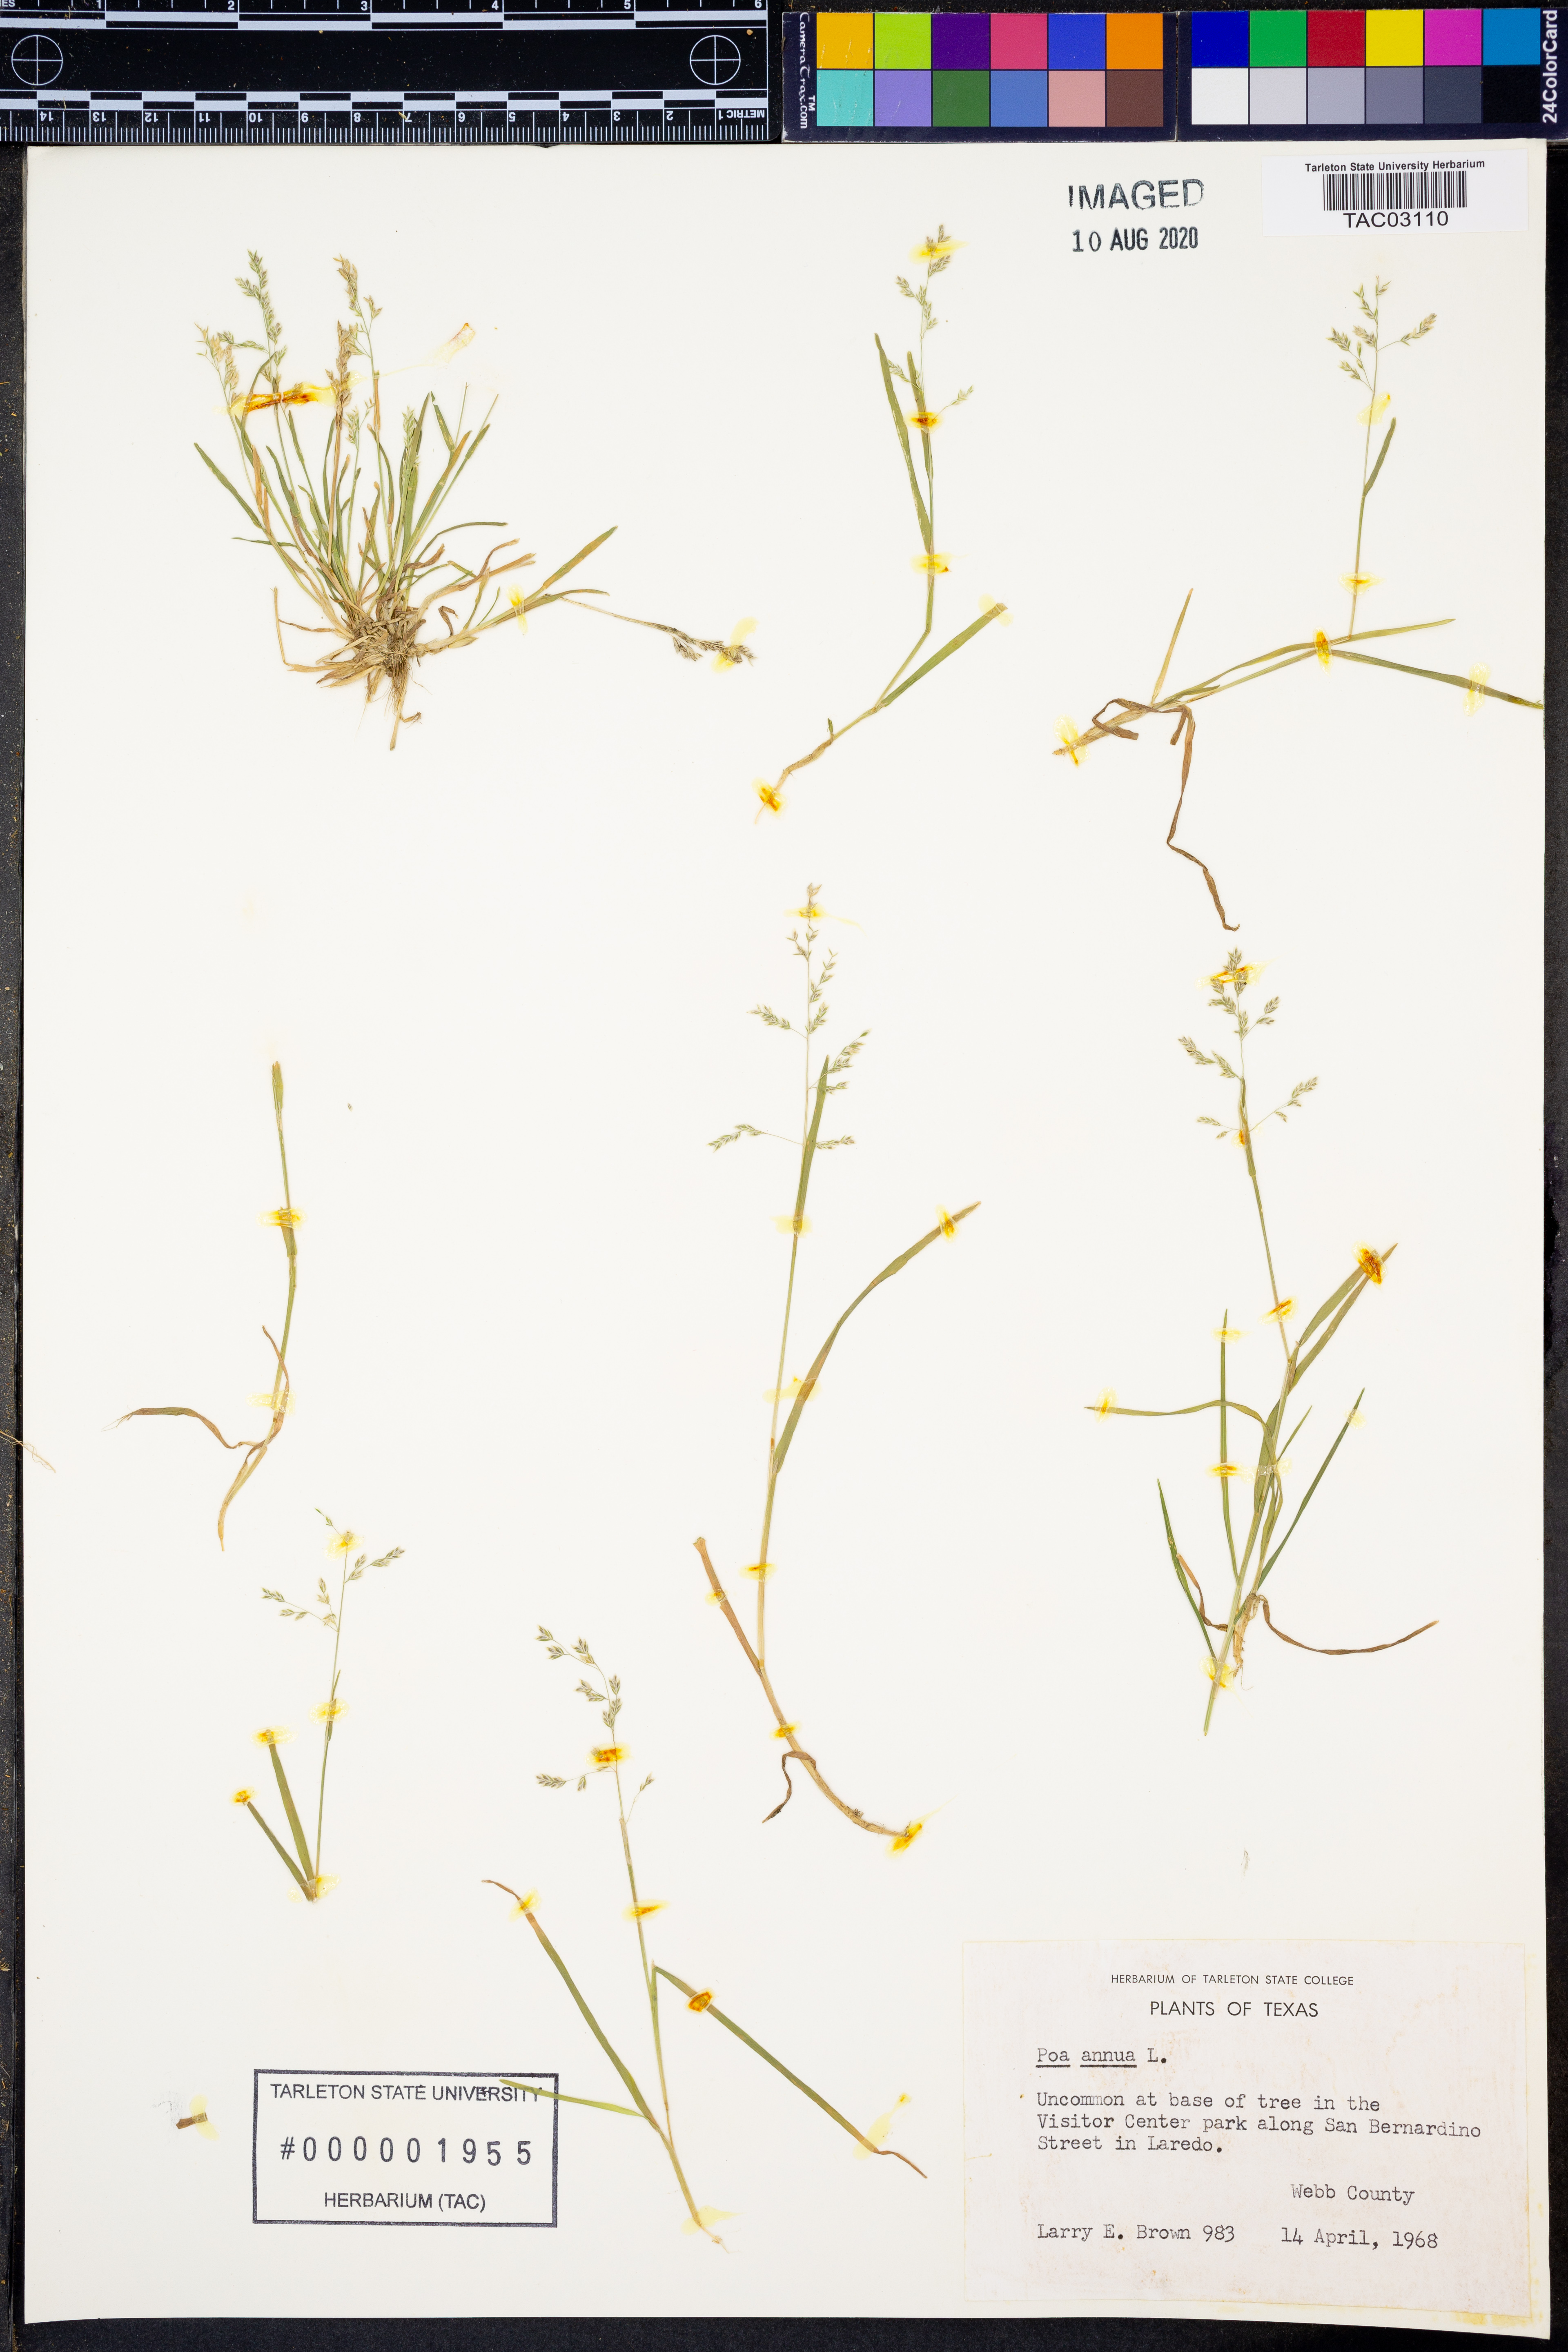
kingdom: Plantae
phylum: Tracheophyta
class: Liliopsida
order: Poales
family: Poaceae
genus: Poa
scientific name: Poa annua
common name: Annual bluegrass
